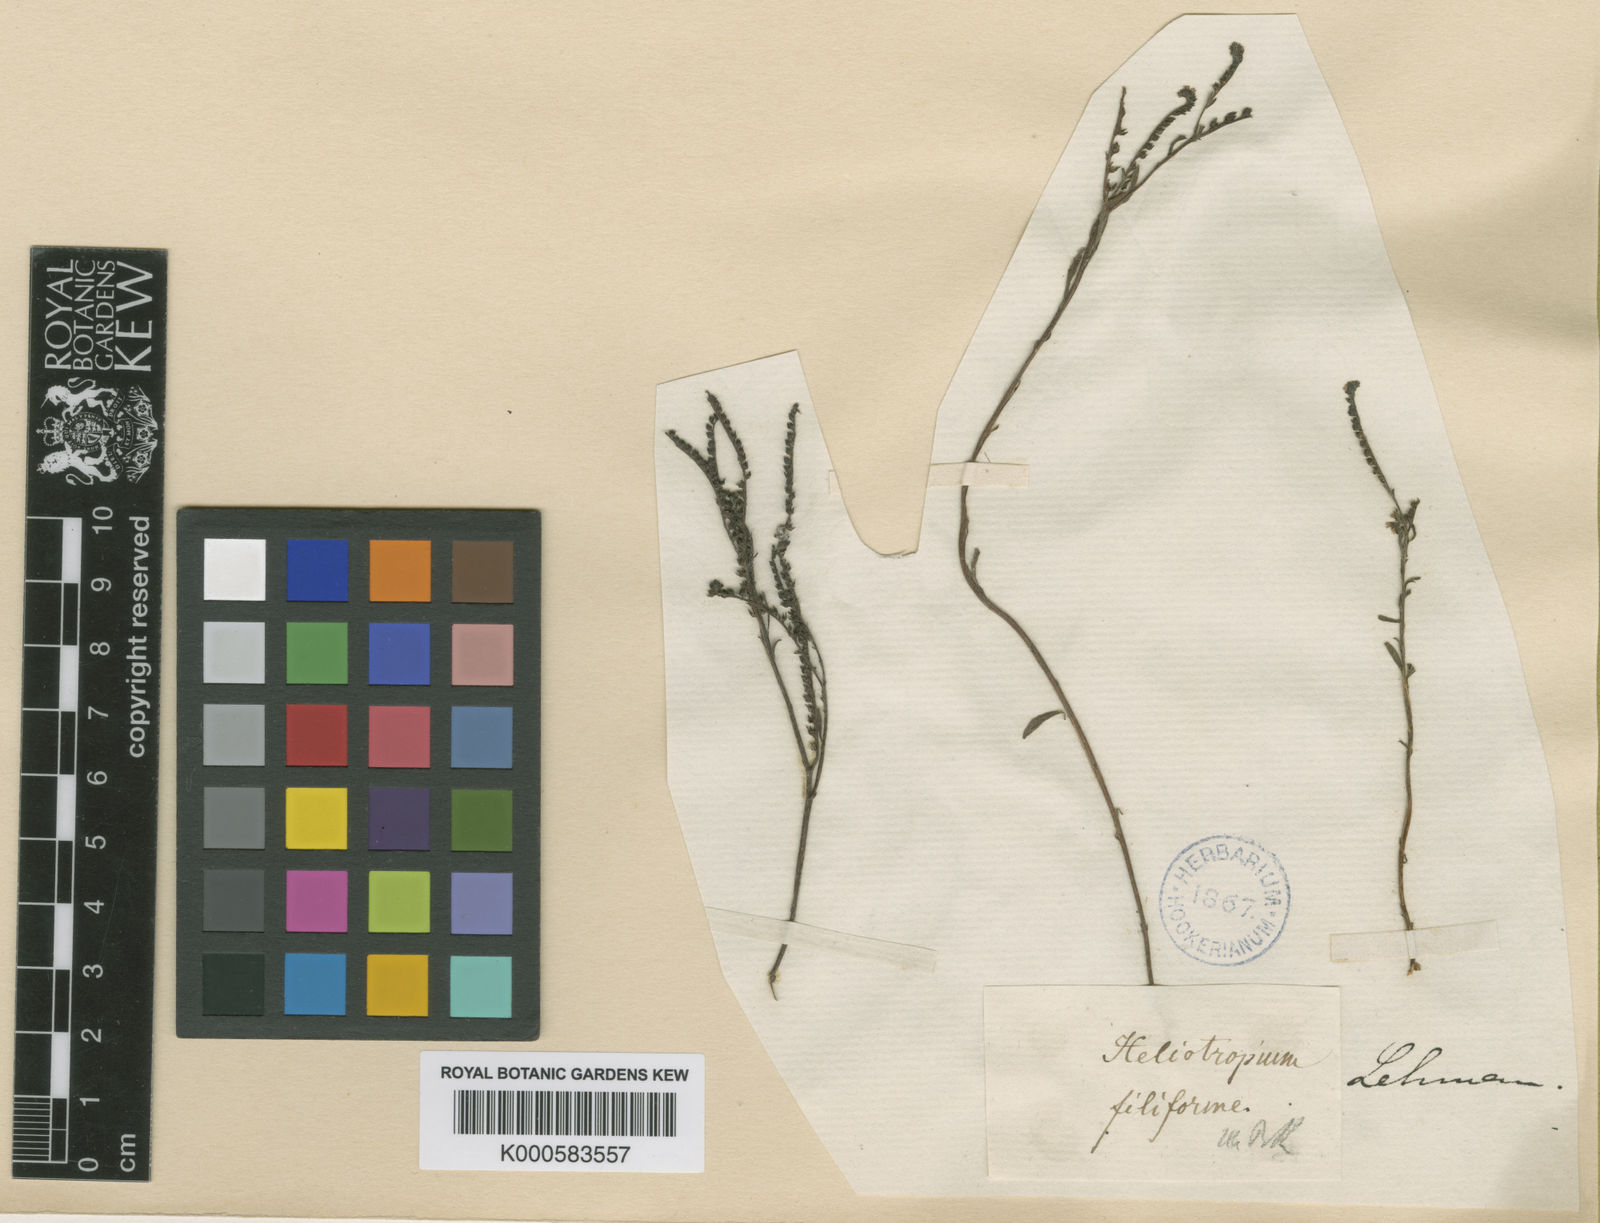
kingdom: Plantae
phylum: Tracheophyta
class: Magnoliopsida
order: Boraginales
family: Heliotropiaceae
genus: Euploca
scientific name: Euploca filiformis
